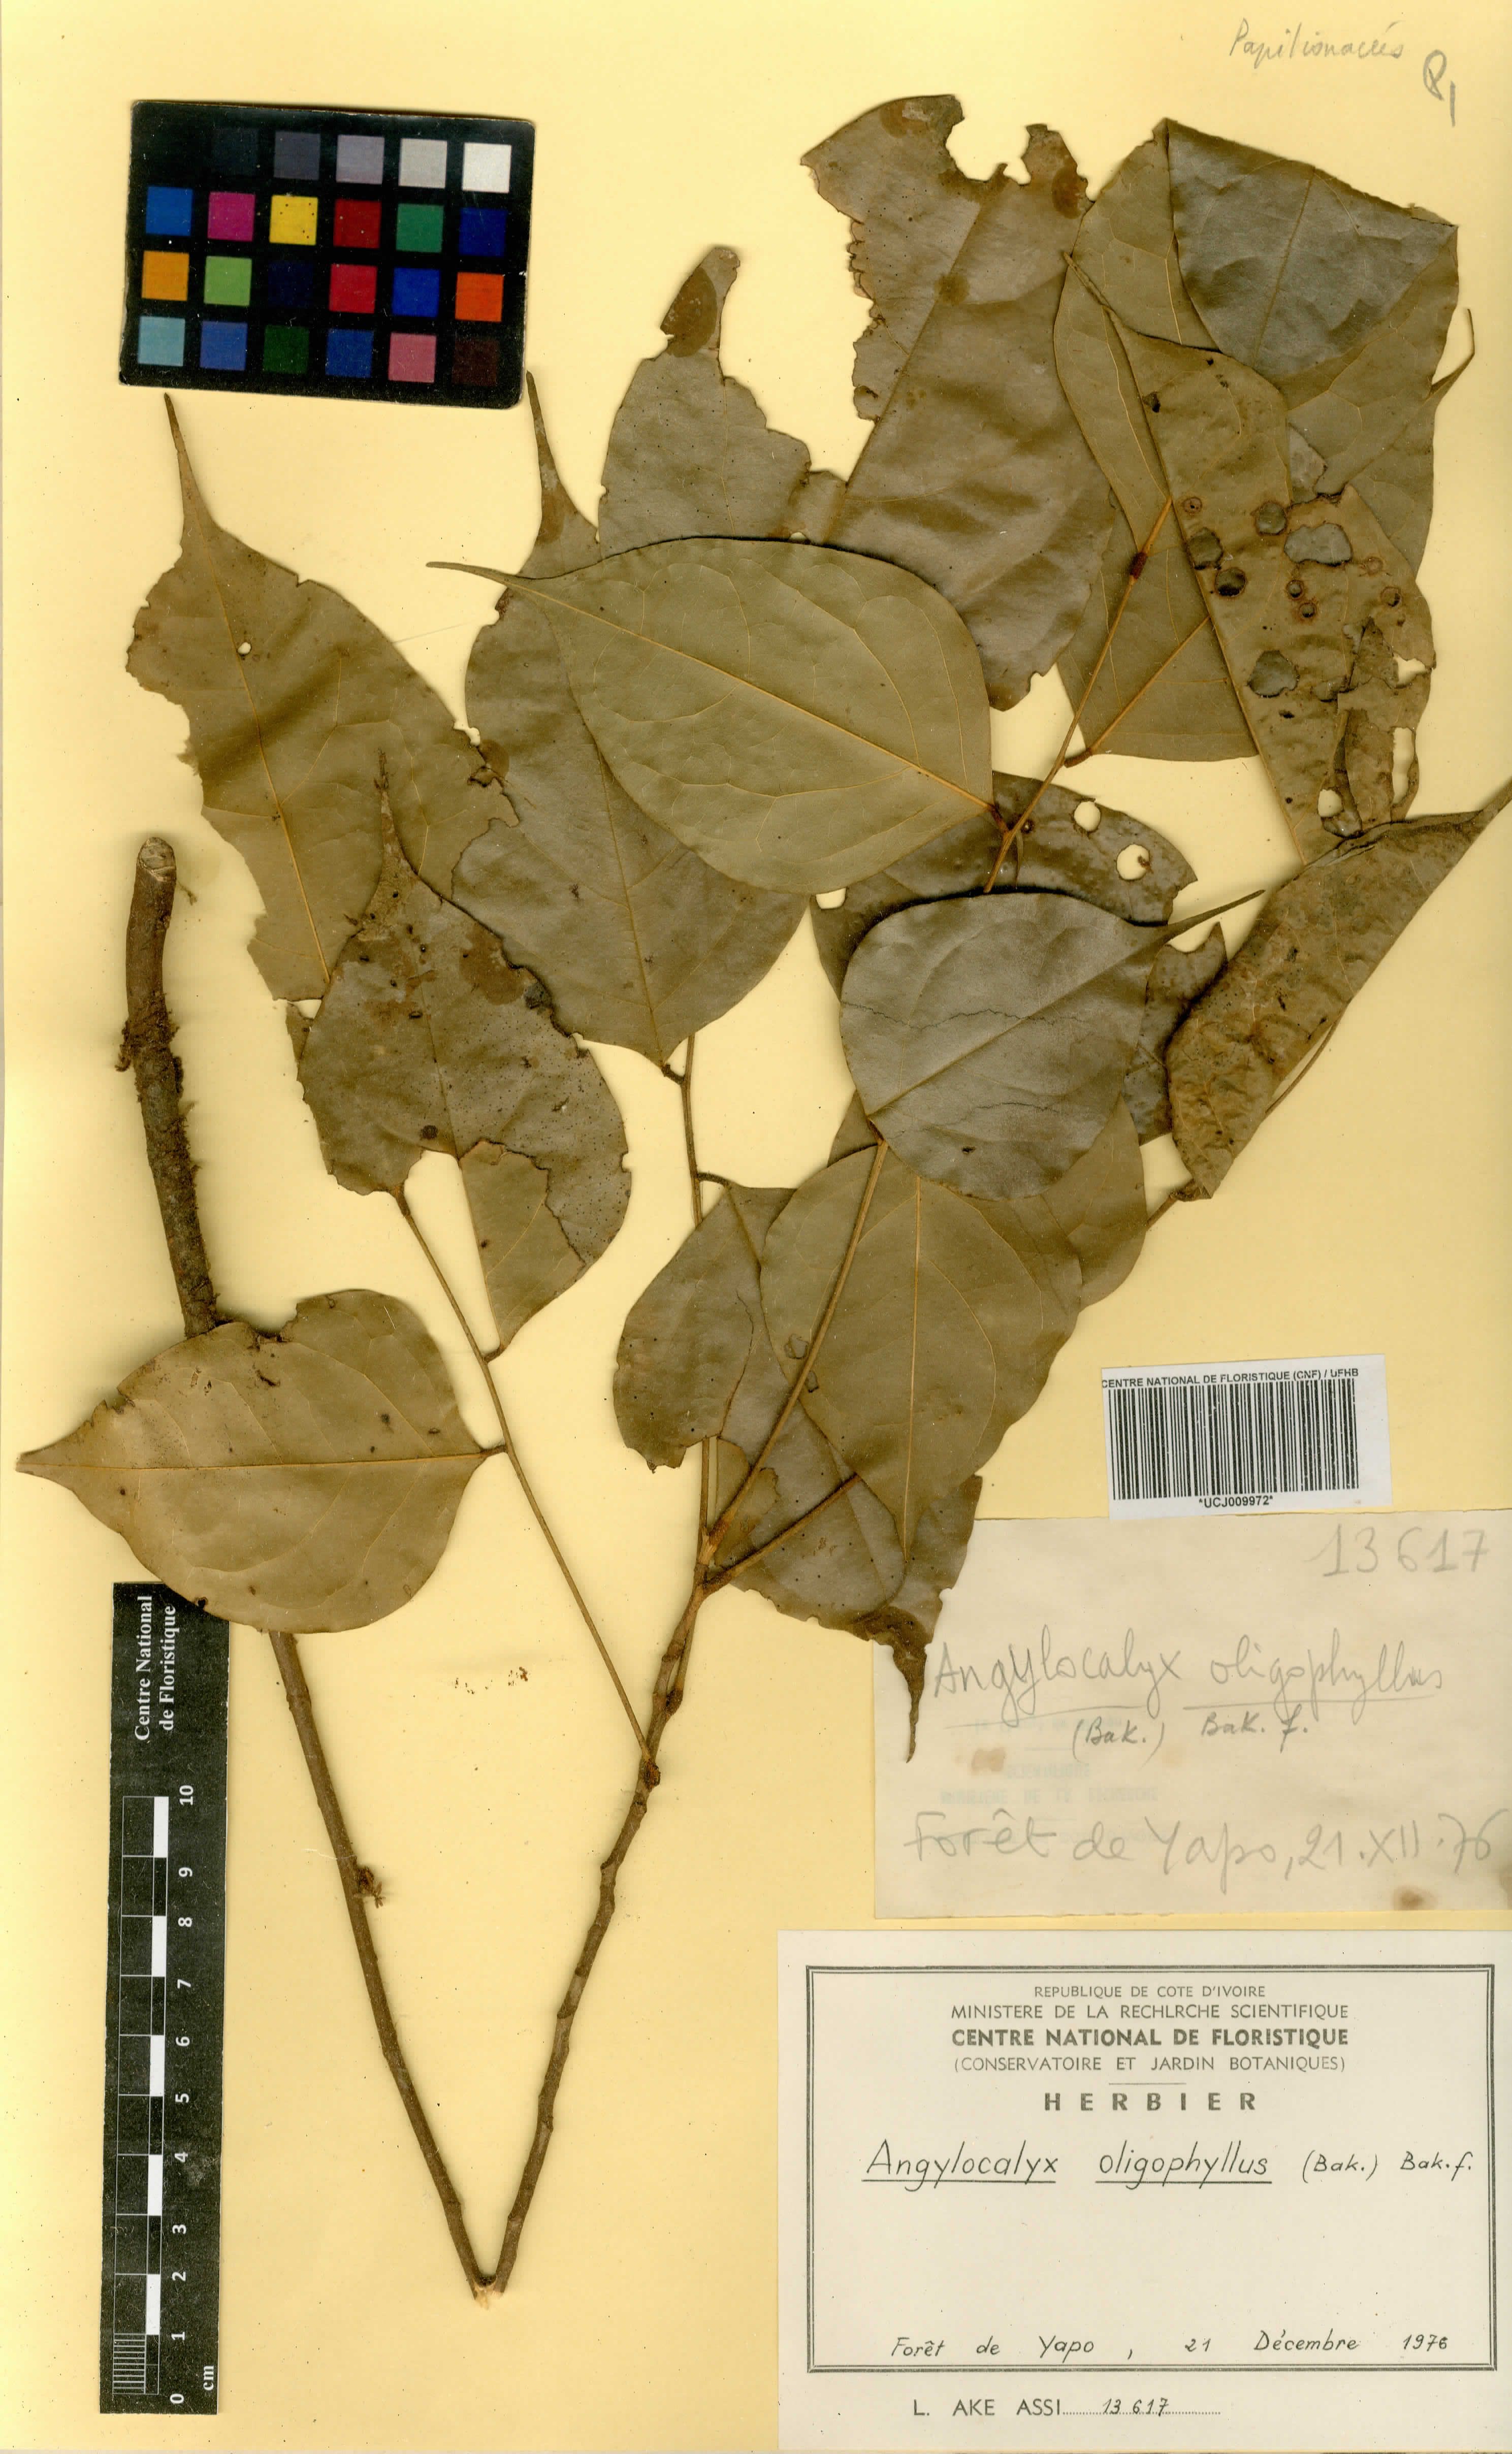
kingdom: Plantae
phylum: Tracheophyta
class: Magnoliopsida
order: Fabales
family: Fabaceae
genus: Angylocalyx
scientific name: Angylocalyx oligophyllus
